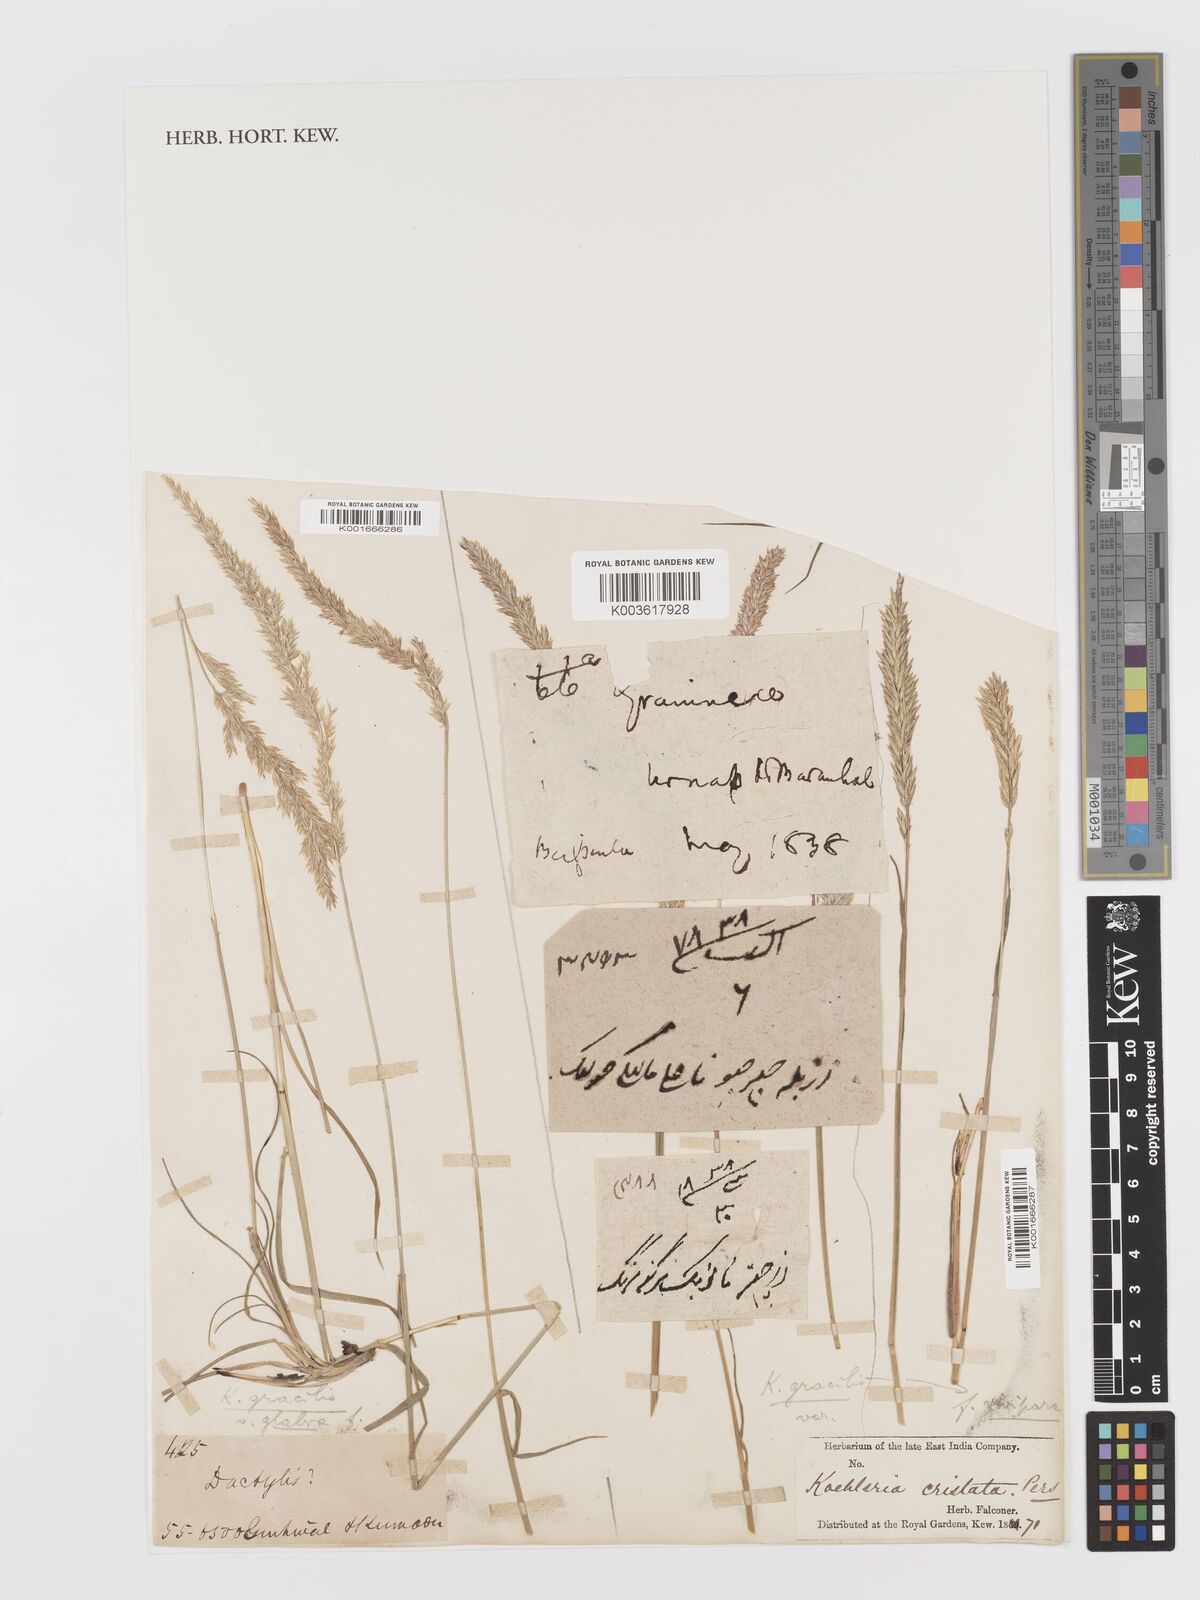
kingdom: Plantae
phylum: Tracheophyta
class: Liliopsida
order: Poales
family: Poaceae
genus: Koeleria
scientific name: Koeleria
